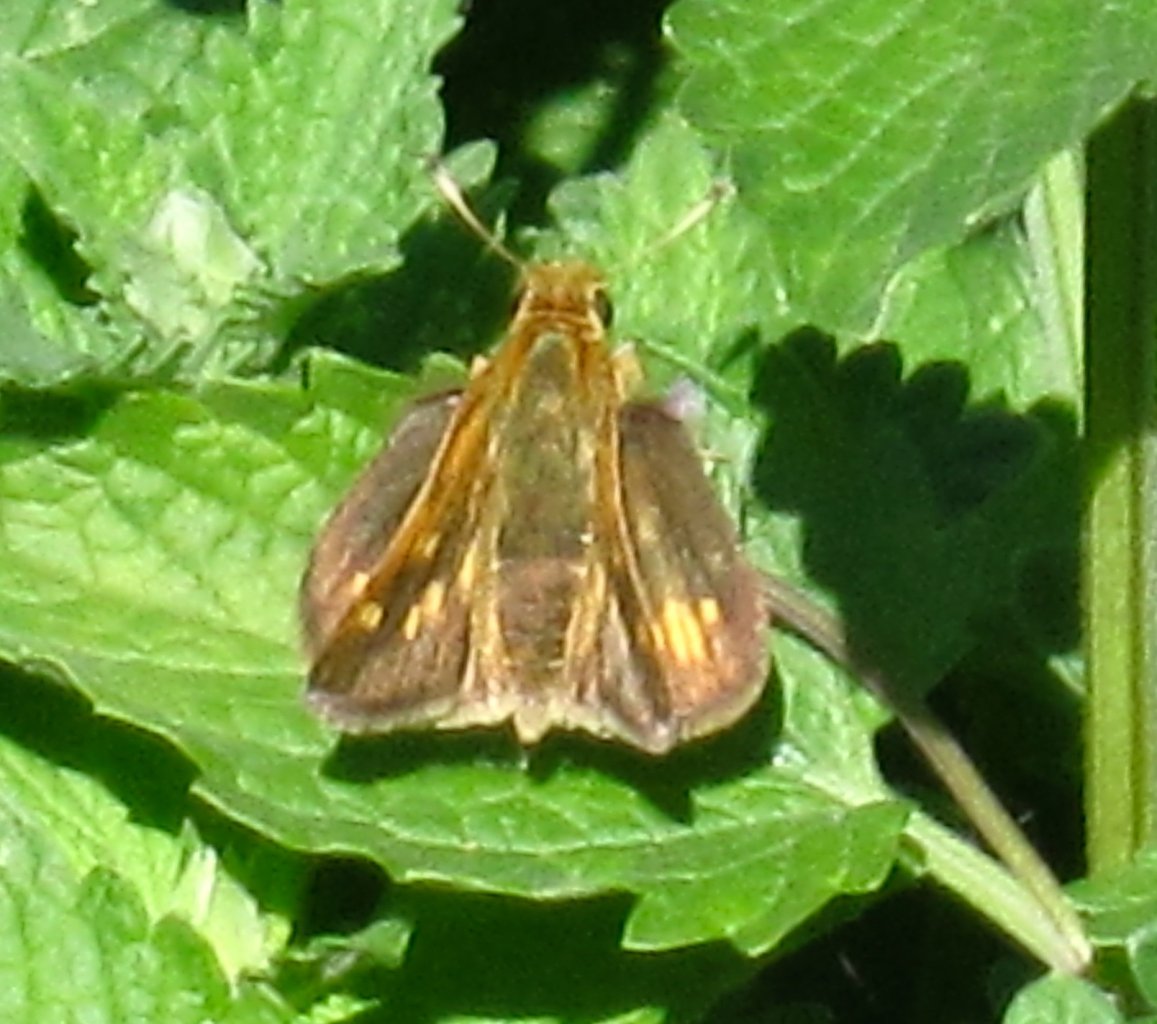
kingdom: Animalia
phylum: Arthropoda
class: Insecta
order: Lepidoptera
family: Hesperiidae
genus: Polites
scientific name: Polites coras
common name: Peck's Skipper
